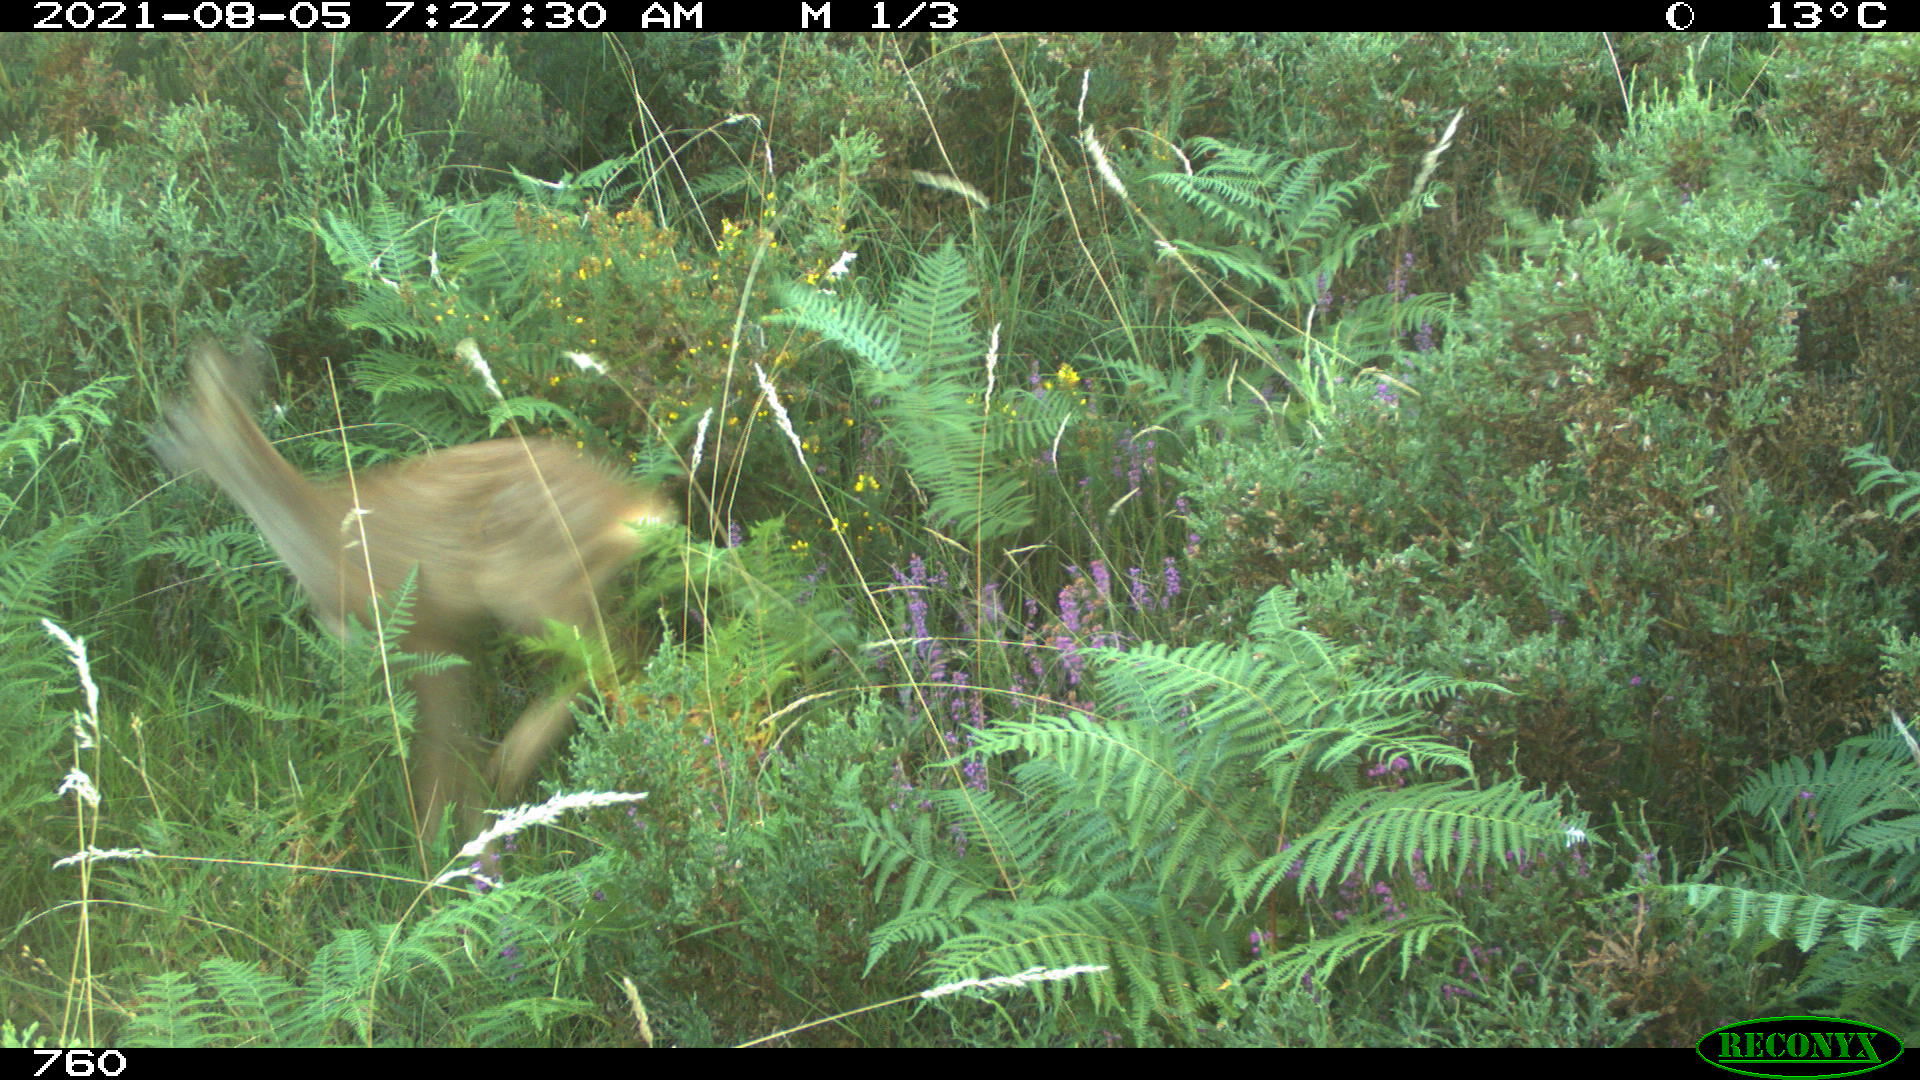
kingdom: Animalia
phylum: Chordata
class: Mammalia
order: Artiodactyla
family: Cervidae
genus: Capreolus
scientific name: Capreolus capreolus
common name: Western roe deer
